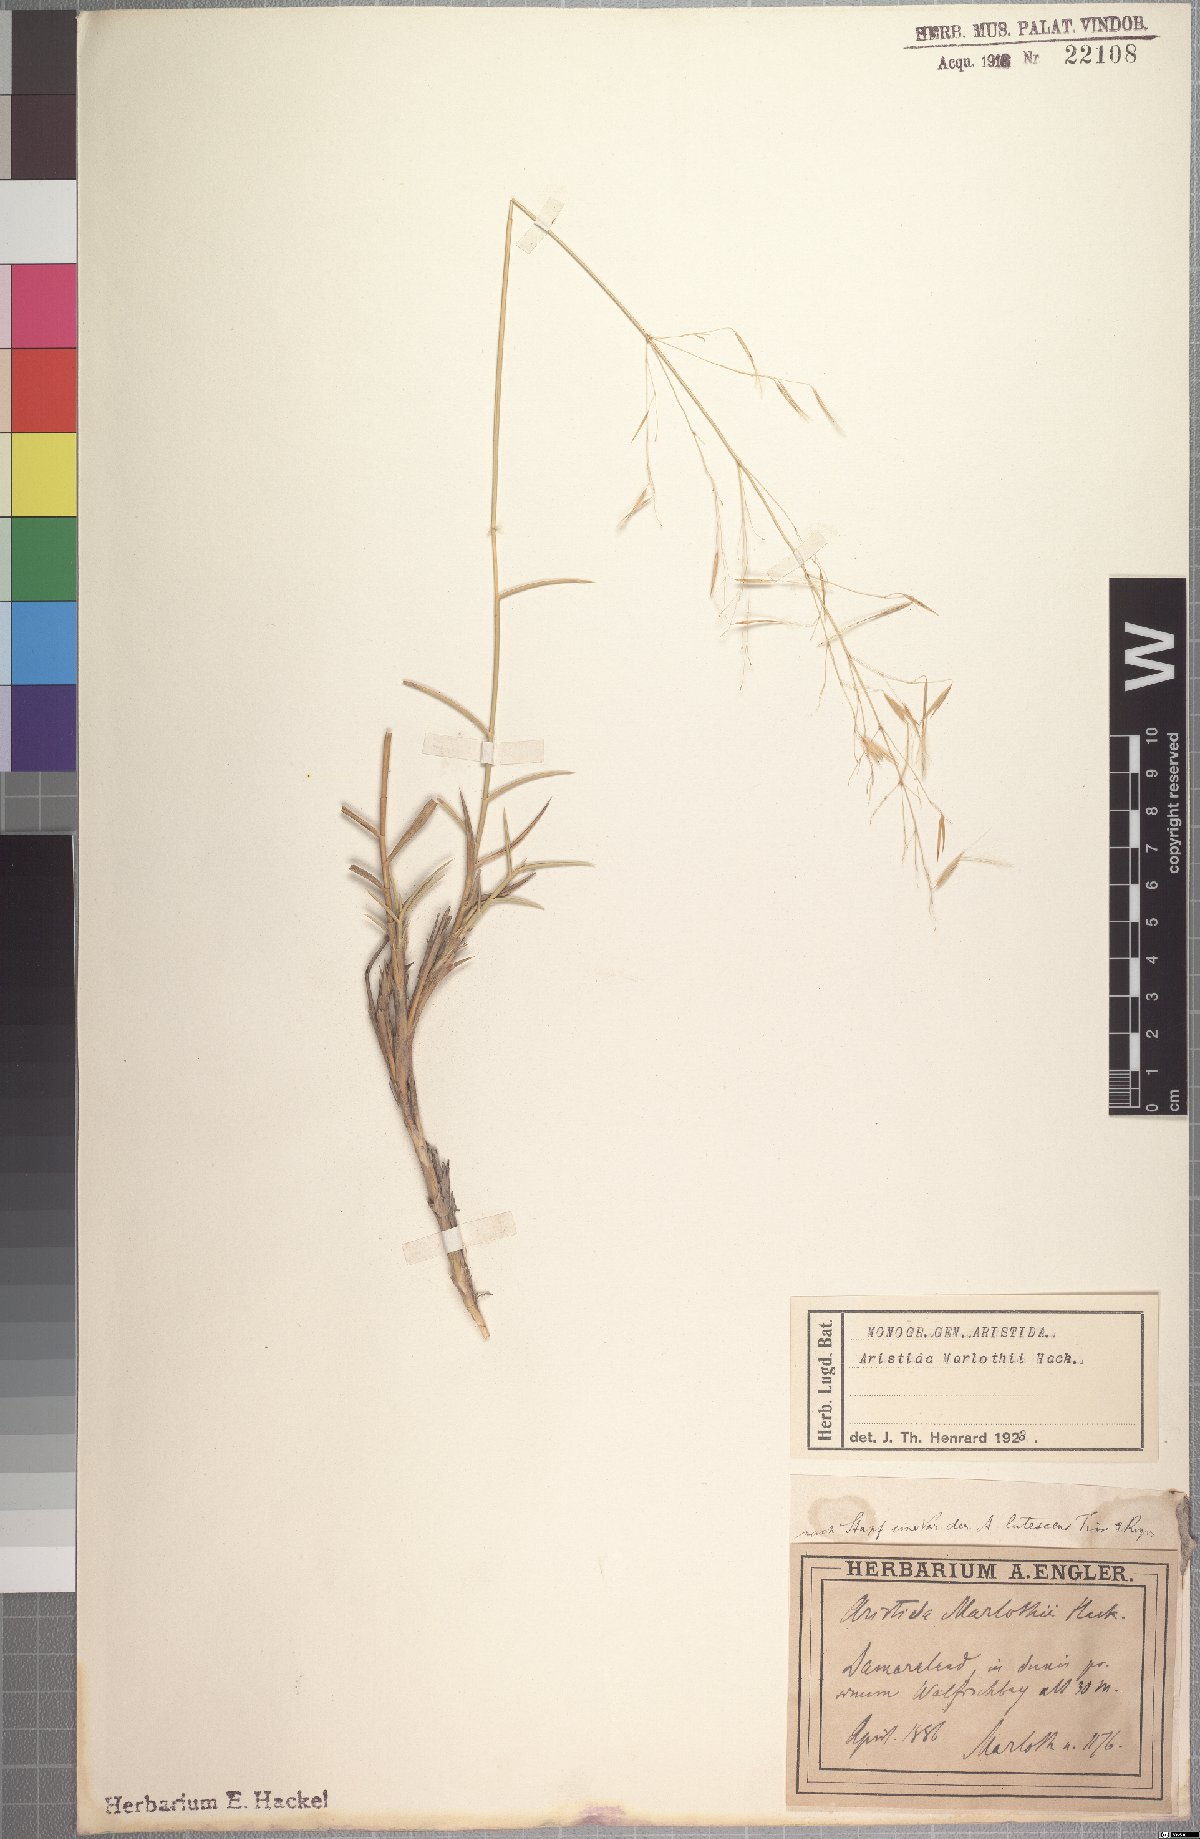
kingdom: Plantae
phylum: Tracheophyta
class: Liliopsida
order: Poales
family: Poaceae
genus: Stipagrostis
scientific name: Stipagrostis lutescens
